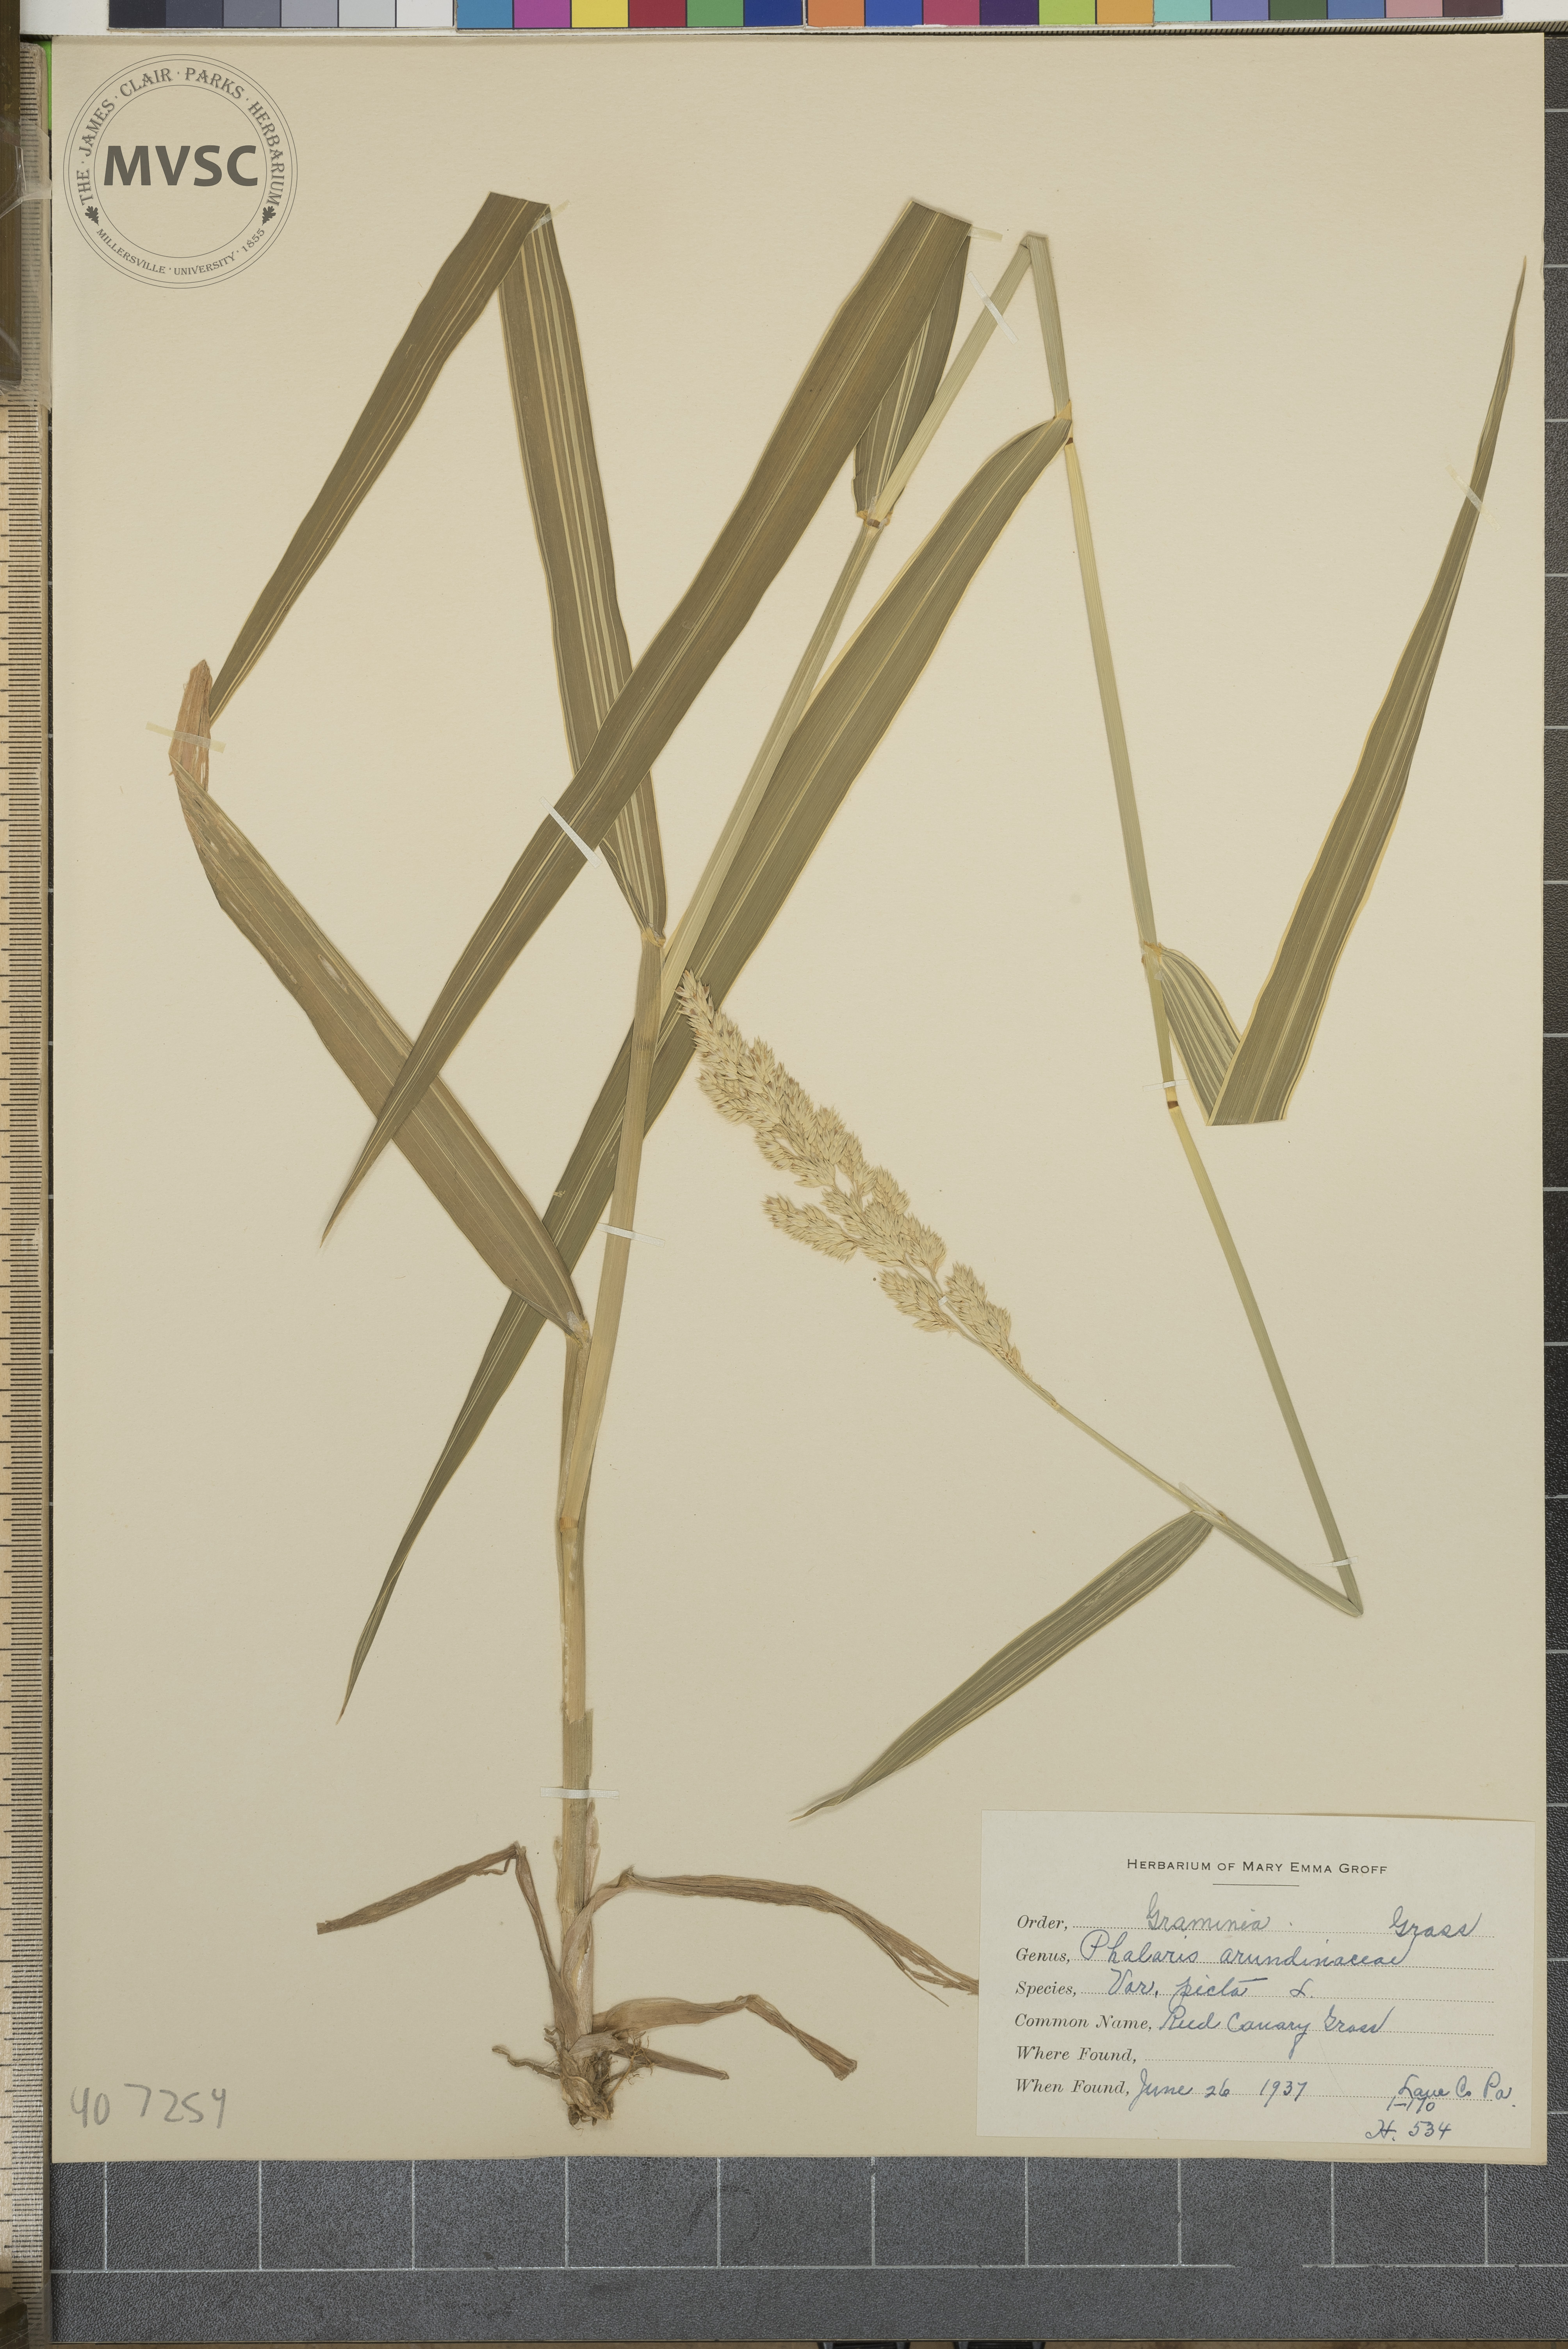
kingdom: Plantae
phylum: Tracheophyta
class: Liliopsida
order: Poales
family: Poaceae
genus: Phalaris
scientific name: Phalaris arundinacea
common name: reed canary-grass
